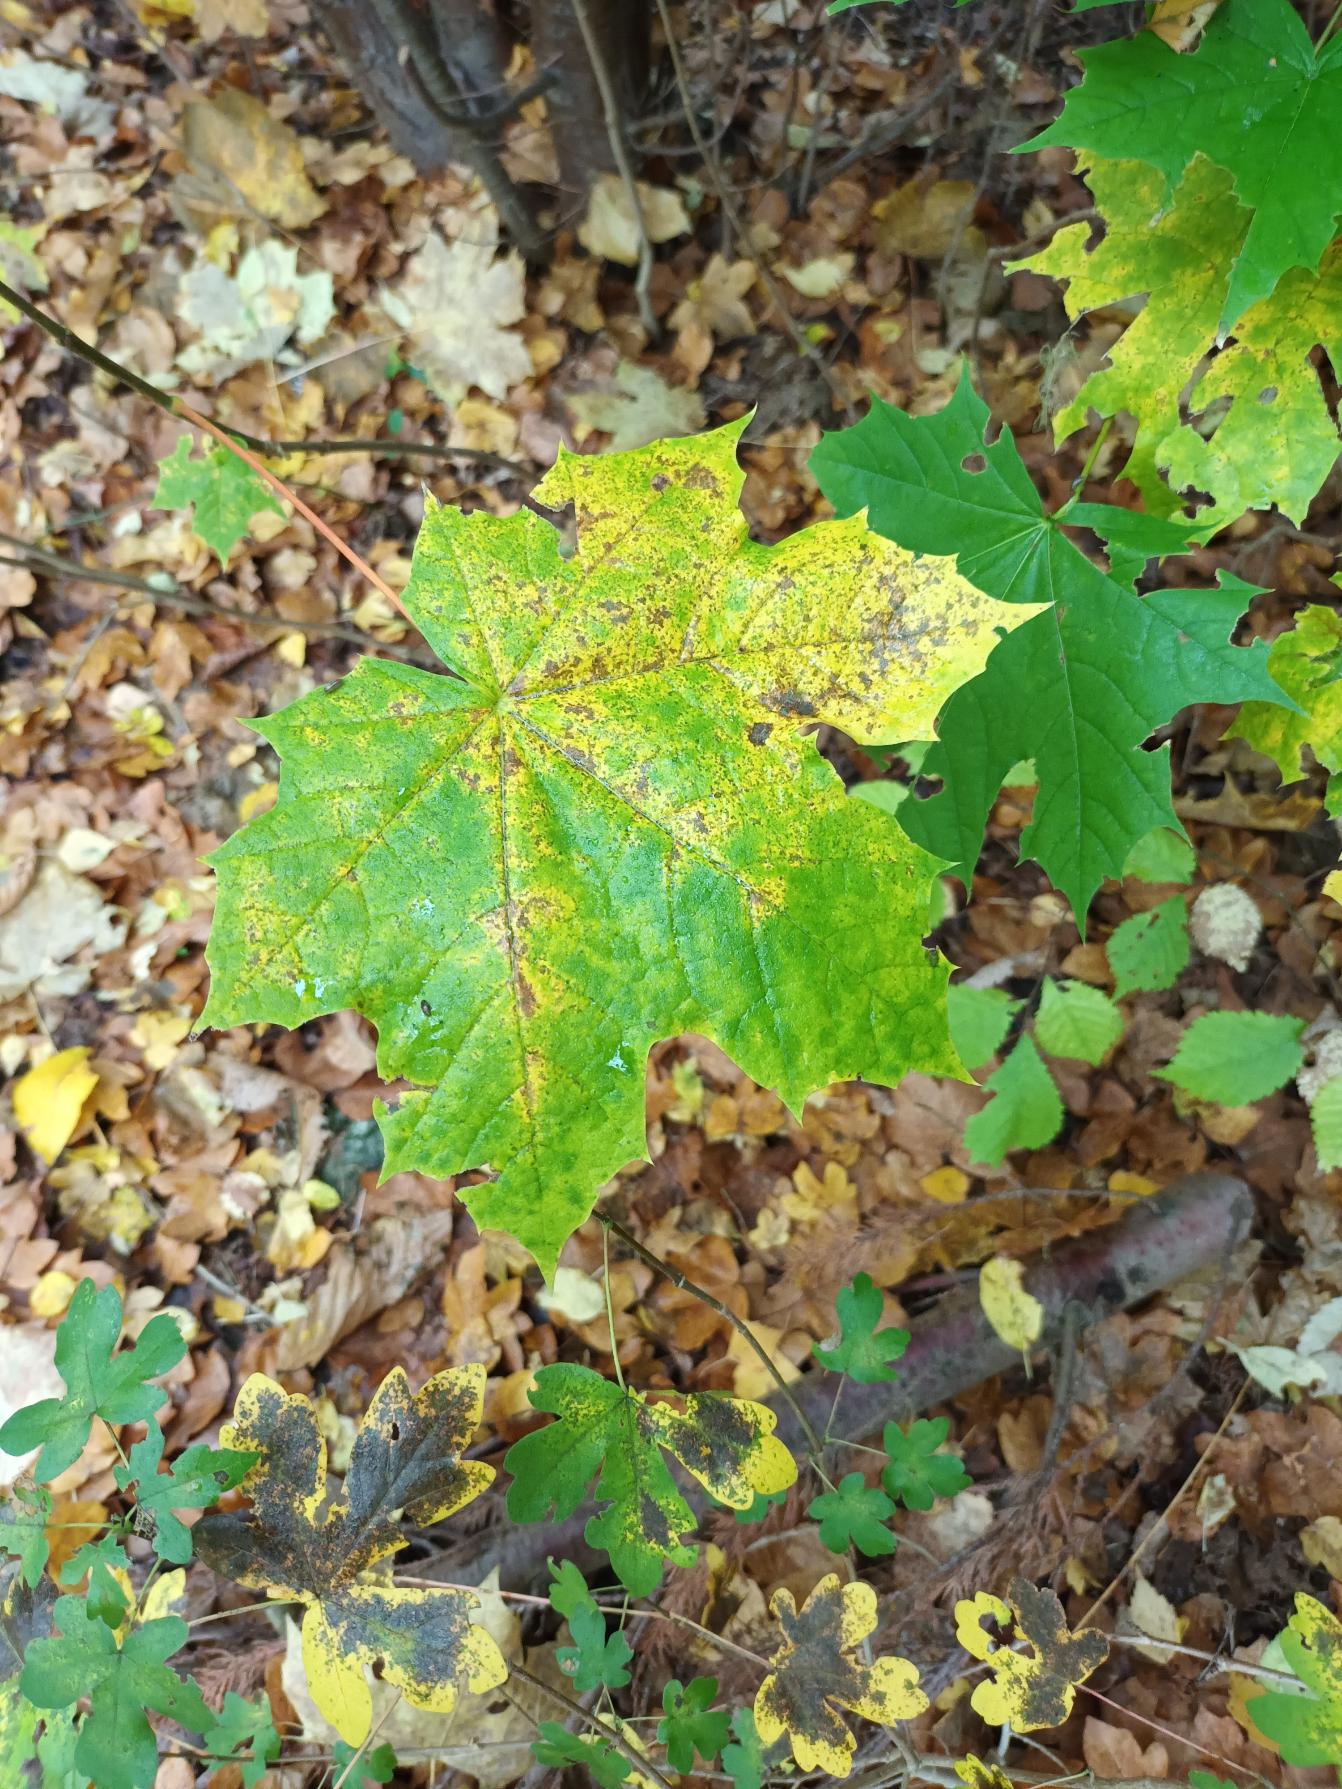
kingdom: Plantae
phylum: Tracheophyta
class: Magnoliopsida
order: Sapindales
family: Sapindaceae
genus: Acer
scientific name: Acer platanoides
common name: Spids-løn
